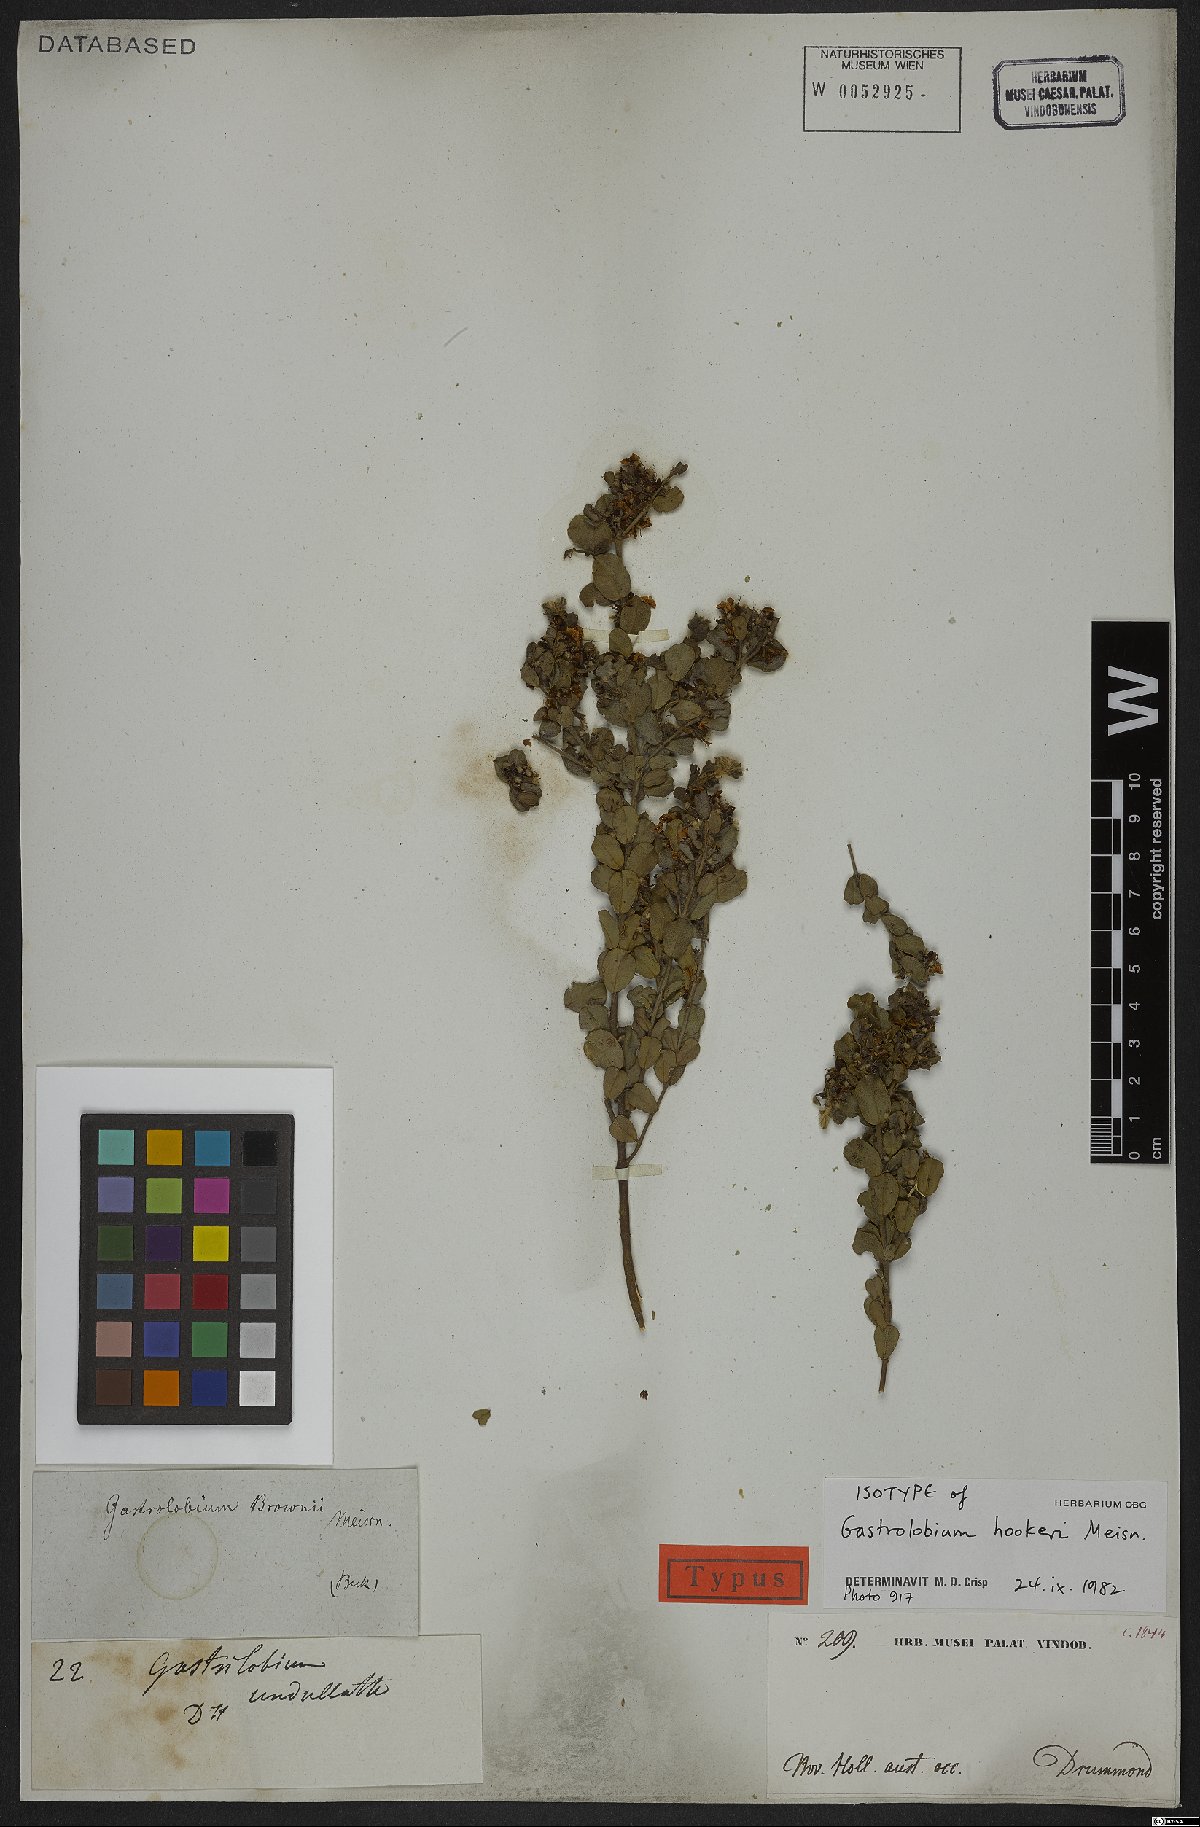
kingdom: Plantae
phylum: Tracheophyta
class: Magnoliopsida
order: Fabales
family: Fabaceae
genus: Gastrolobium
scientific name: Gastrolobium hookeri
